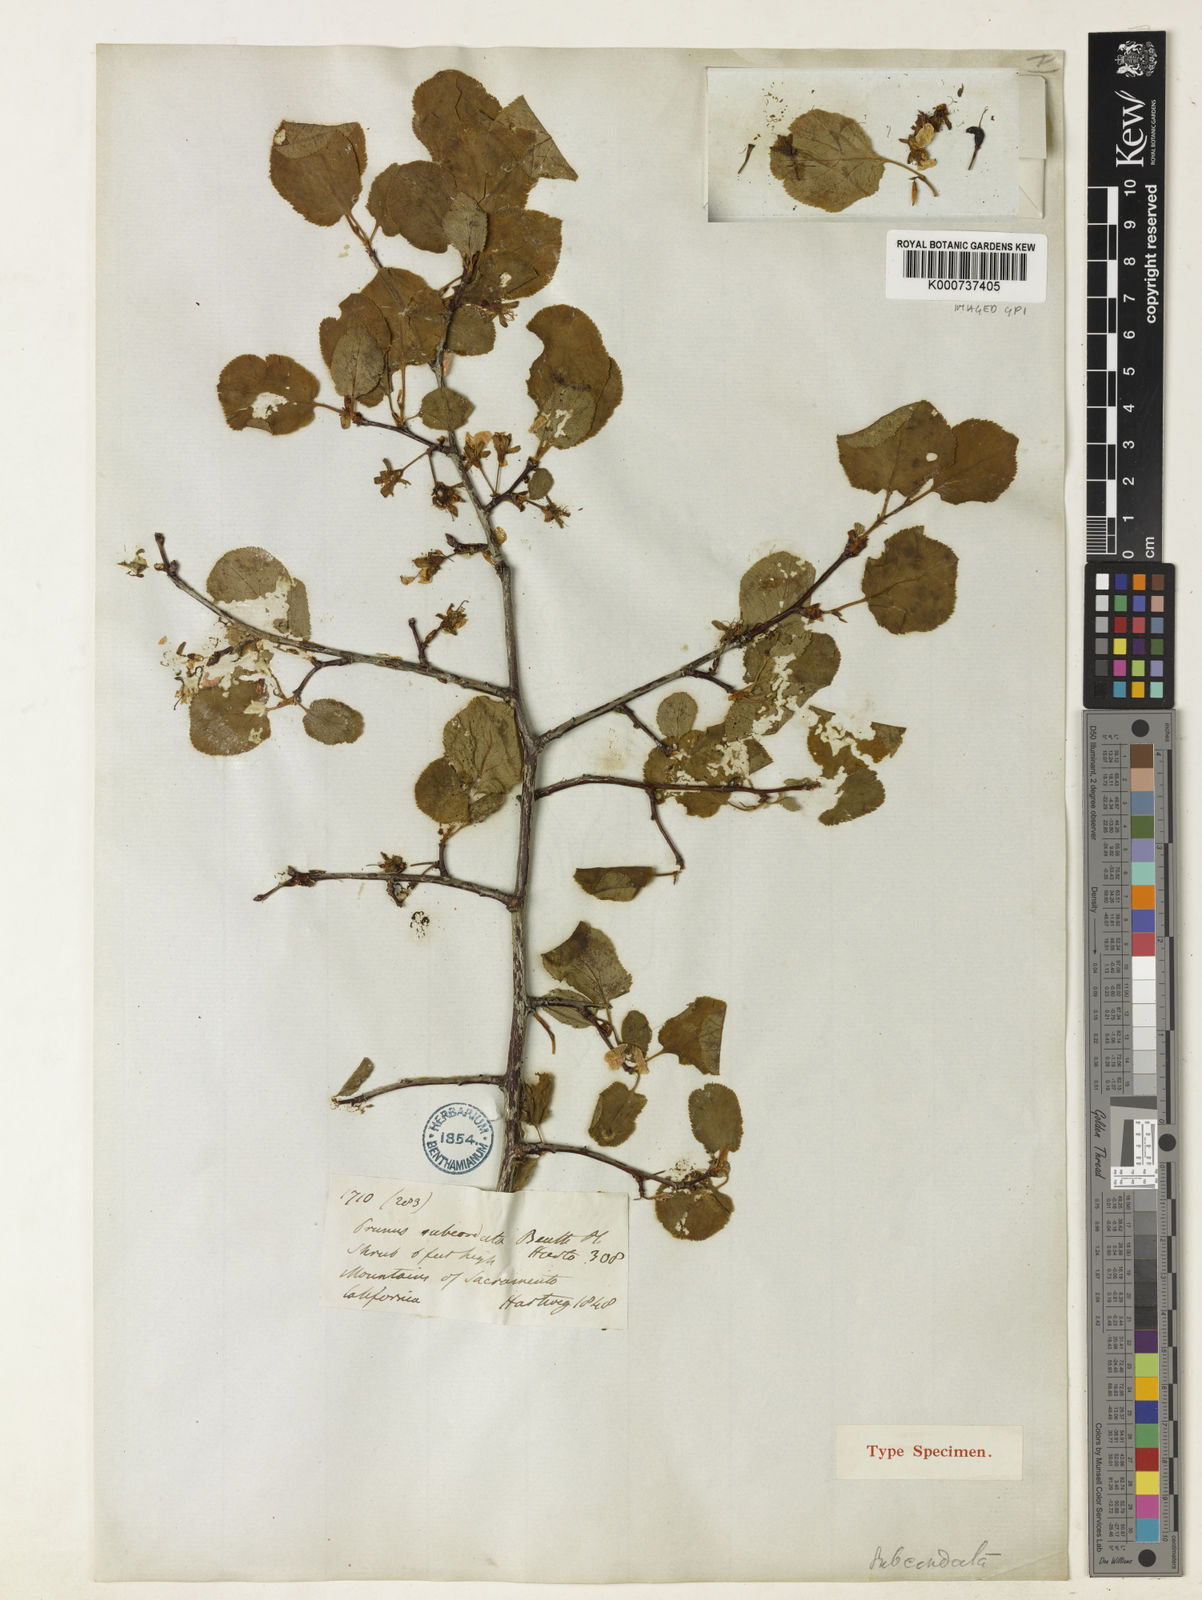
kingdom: Plantae
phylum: Tracheophyta
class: Magnoliopsida
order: Rosales
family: Rosaceae
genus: Prunus
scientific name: Prunus subcordata
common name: Klamath plum
